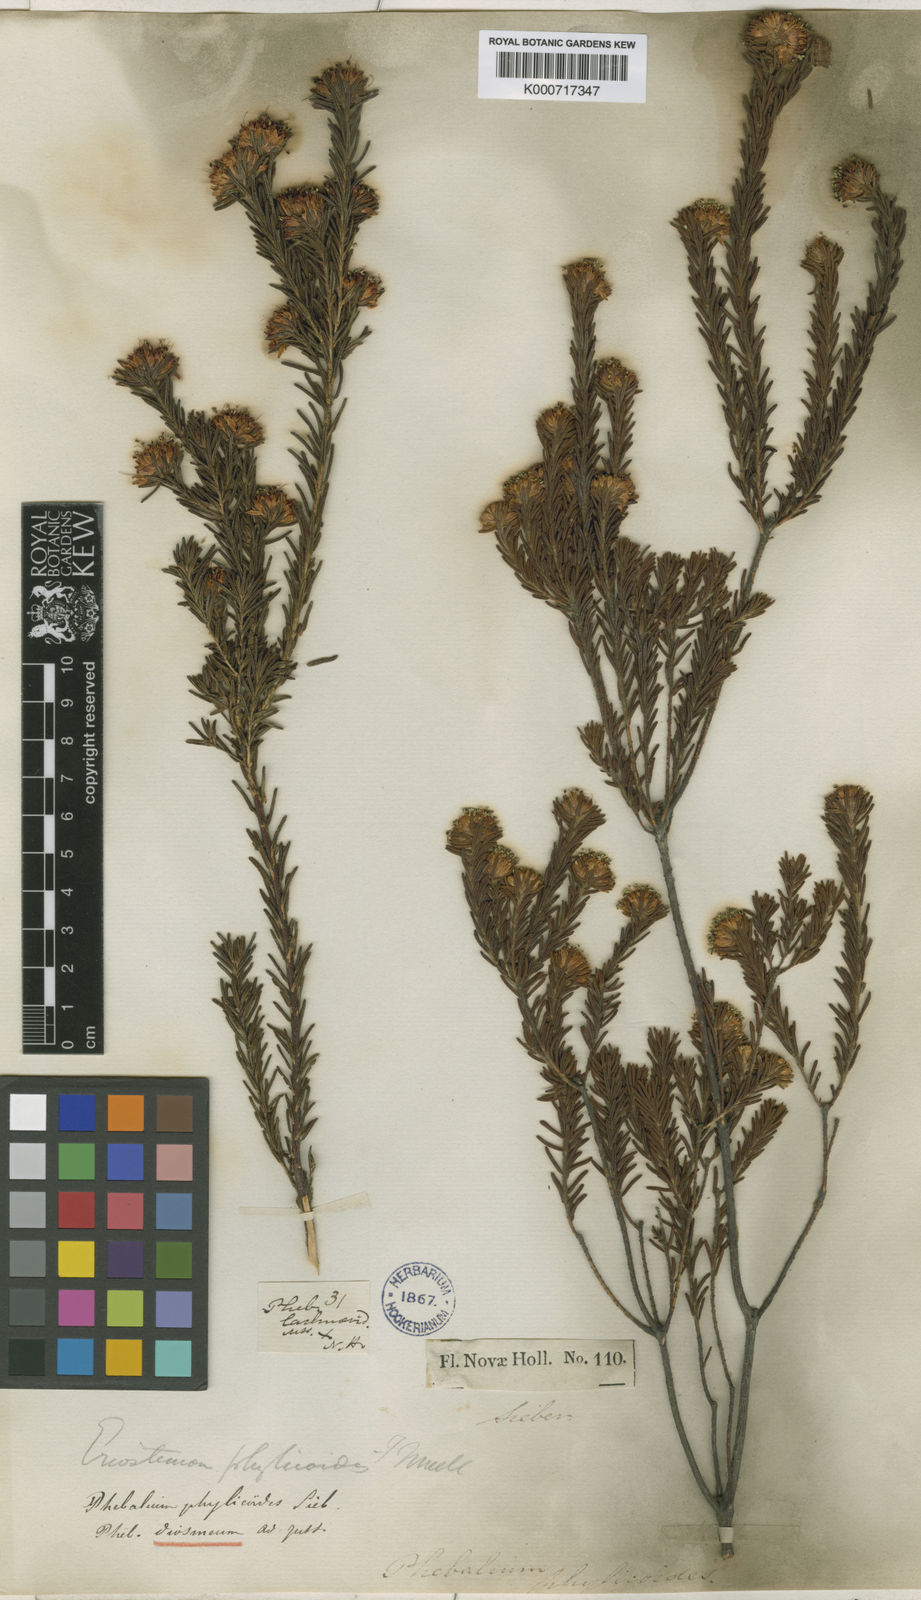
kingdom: Plantae
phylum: Tracheophyta
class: Magnoliopsida
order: Sapindales
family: Rutaceae
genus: Leionema
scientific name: Leionema diosmeum
